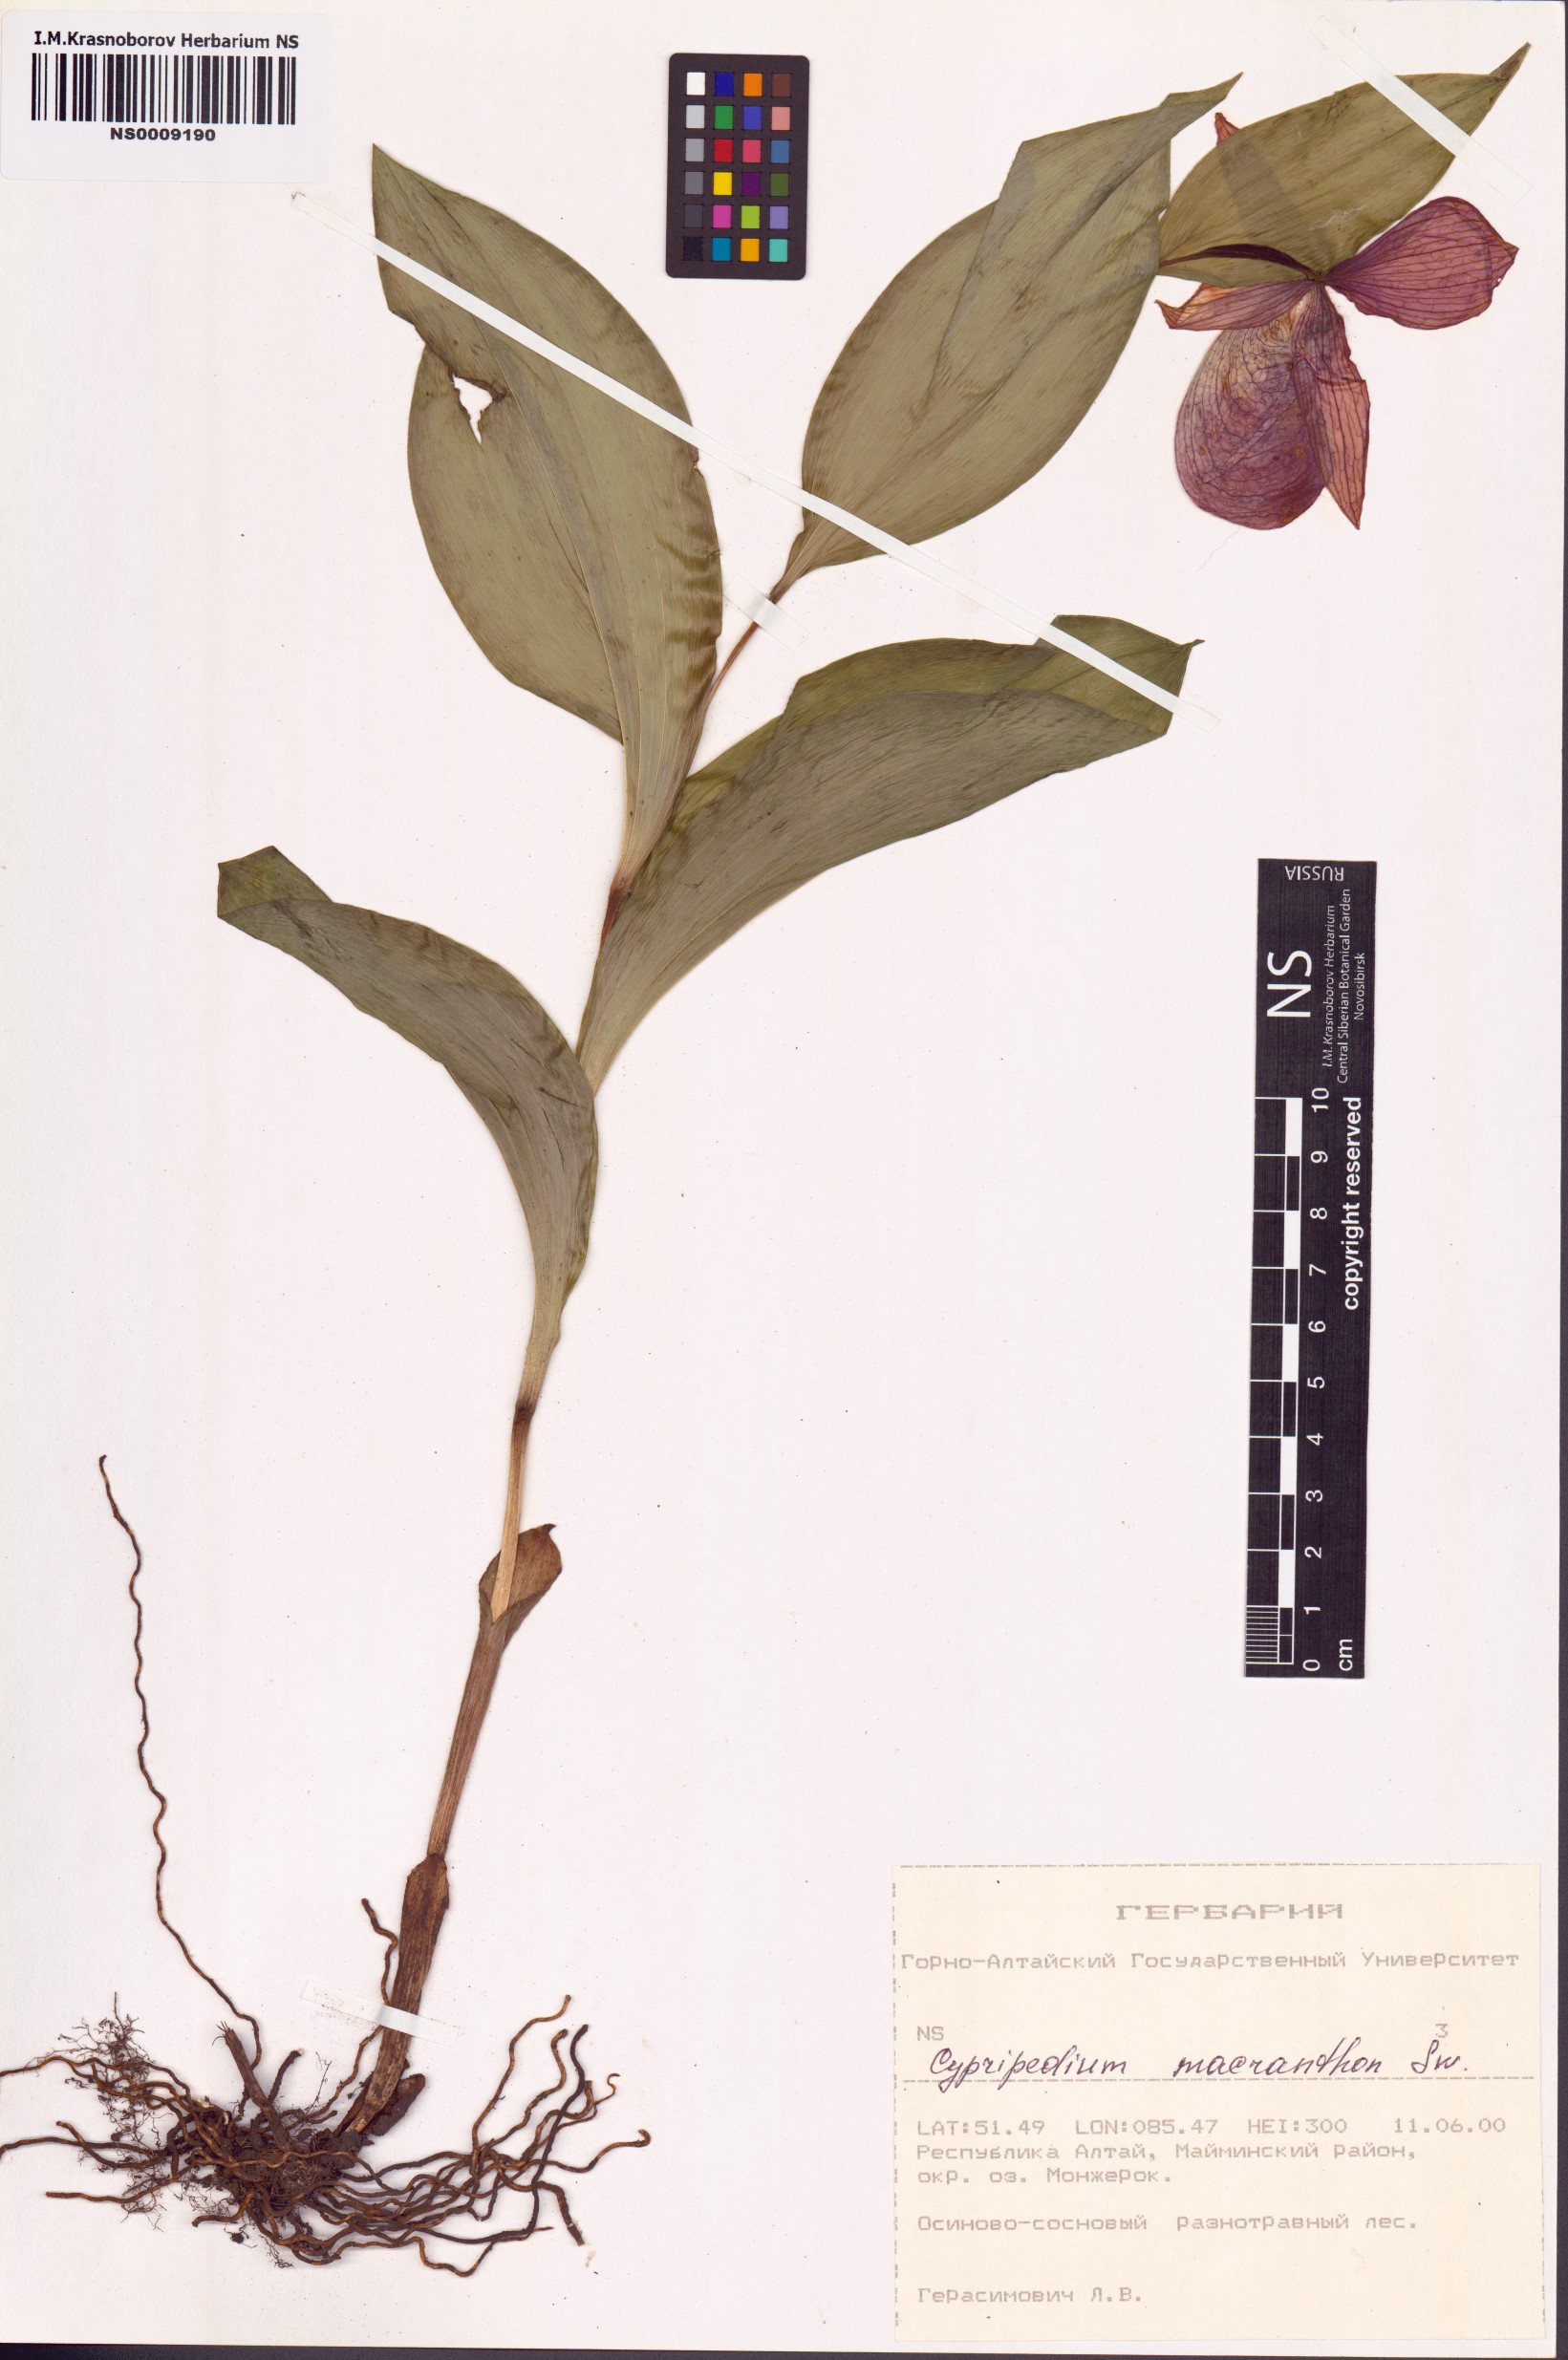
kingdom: Plantae
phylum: Tracheophyta
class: Liliopsida
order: Asparagales
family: Orchidaceae
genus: Cypripedium
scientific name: Cypripedium macranthos
